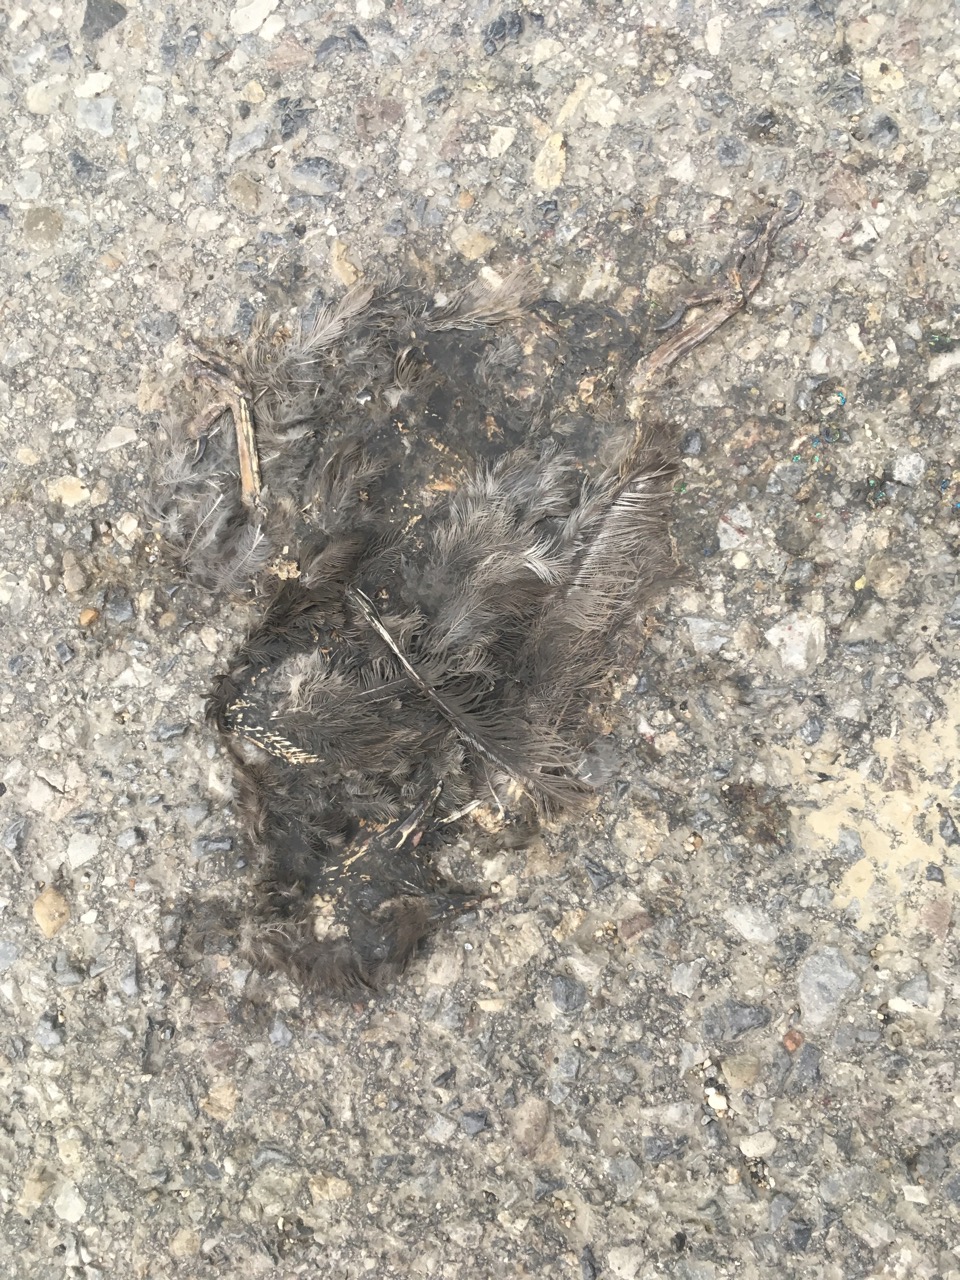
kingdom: Animalia
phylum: Chordata
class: Aves
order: Passeriformes
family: Turdidae
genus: Turdus
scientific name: Turdus merula
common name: Common blackbird
